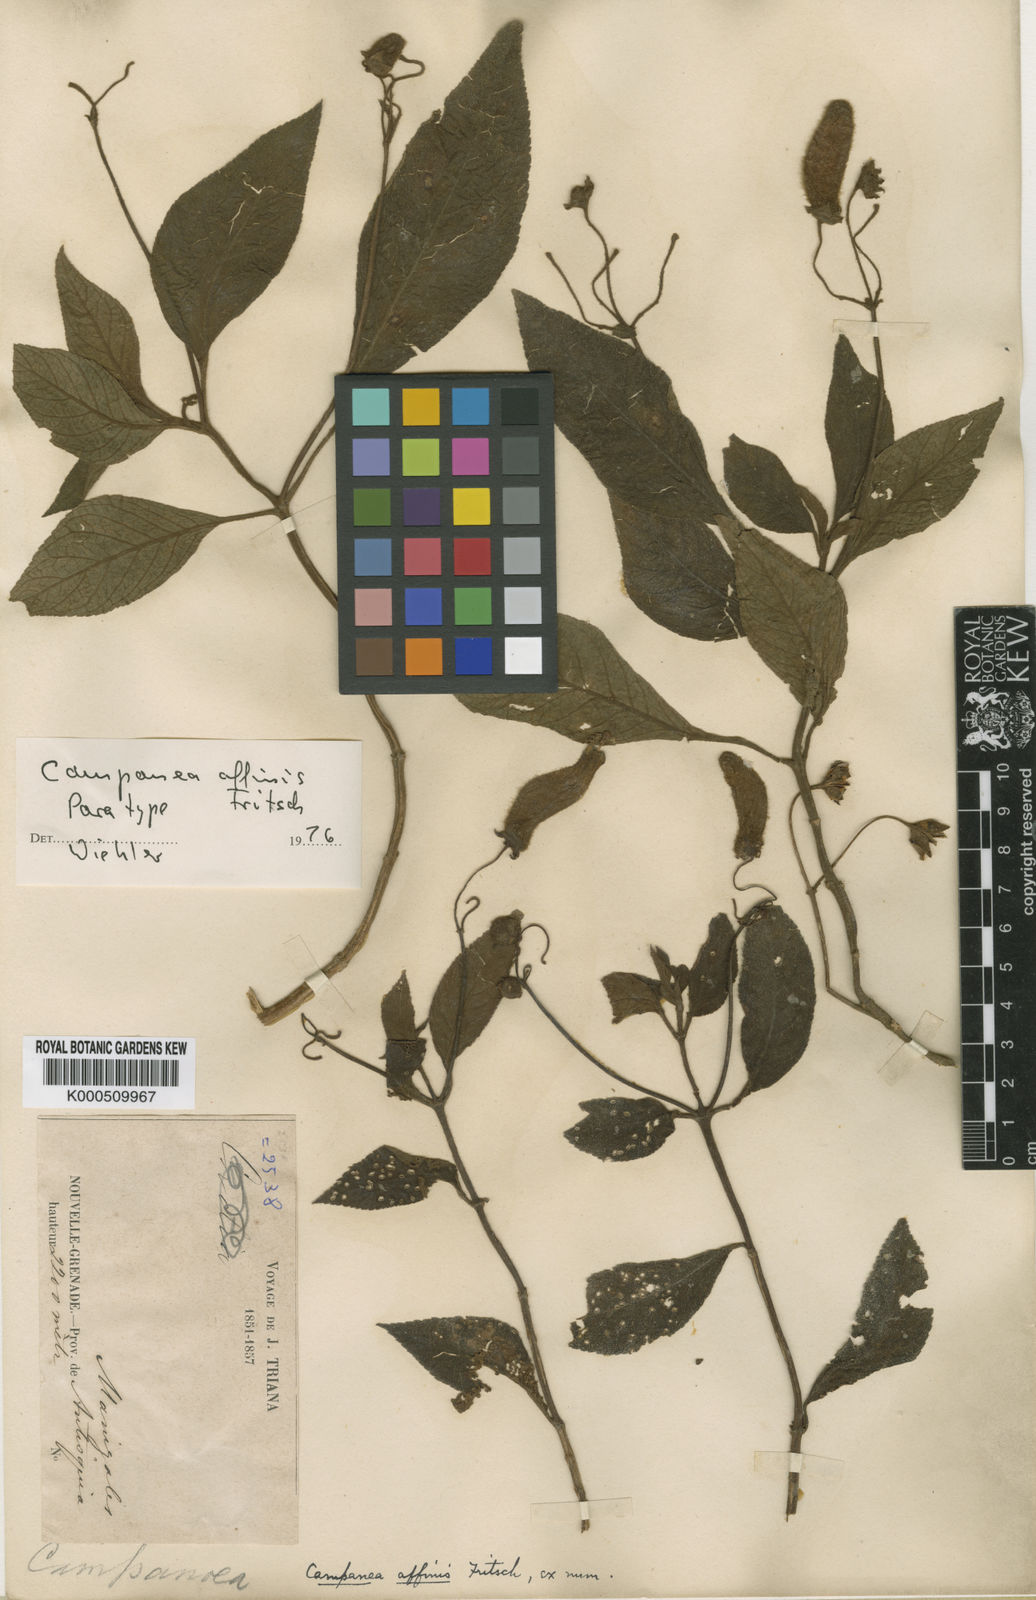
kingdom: Plantae
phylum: Tracheophyta
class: Magnoliopsida
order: Lamiales
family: Gesneriaceae
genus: Kohleria
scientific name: Kohleria
